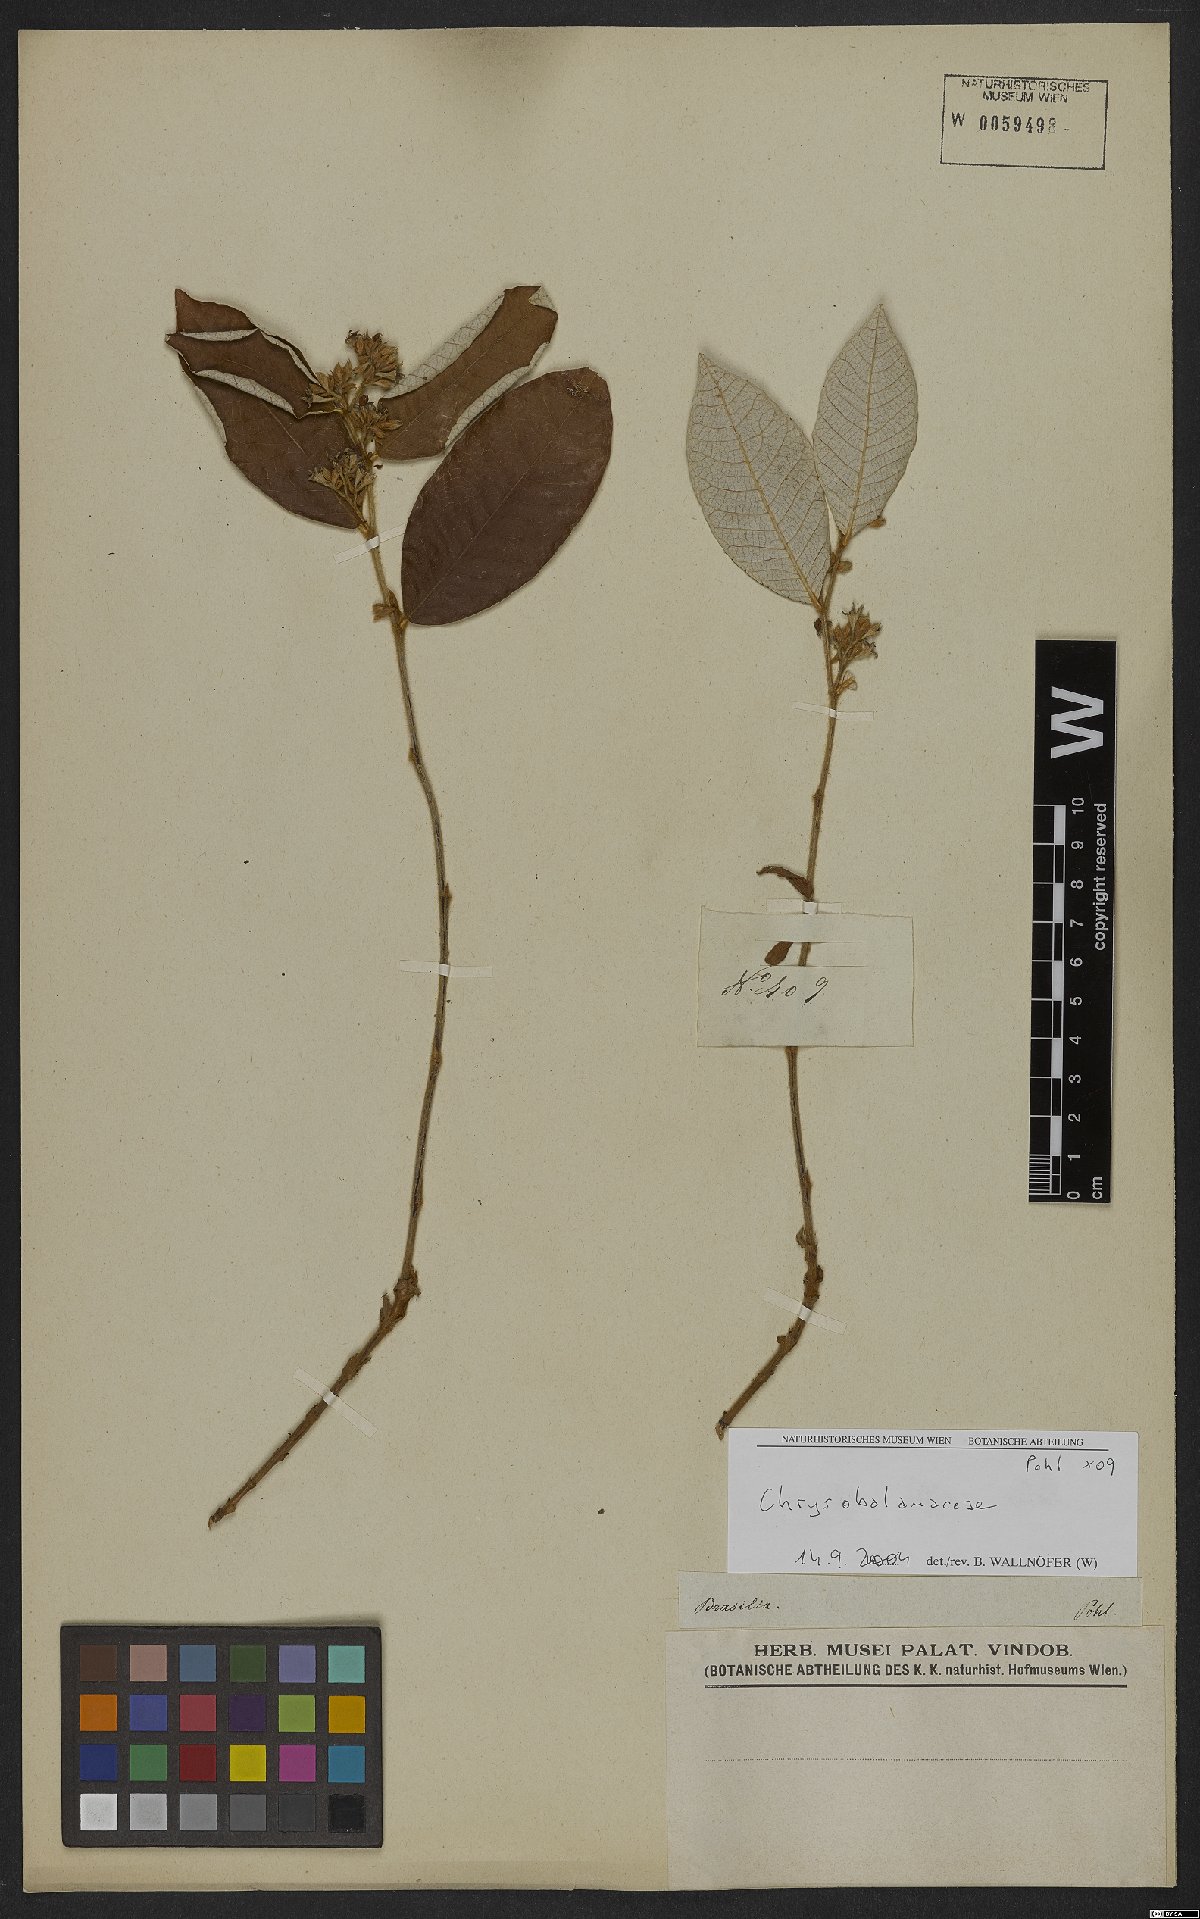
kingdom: Plantae
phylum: Tracheophyta
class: Magnoliopsida
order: Malpighiales
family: Chrysobalanaceae
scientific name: Chrysobalanaceae
